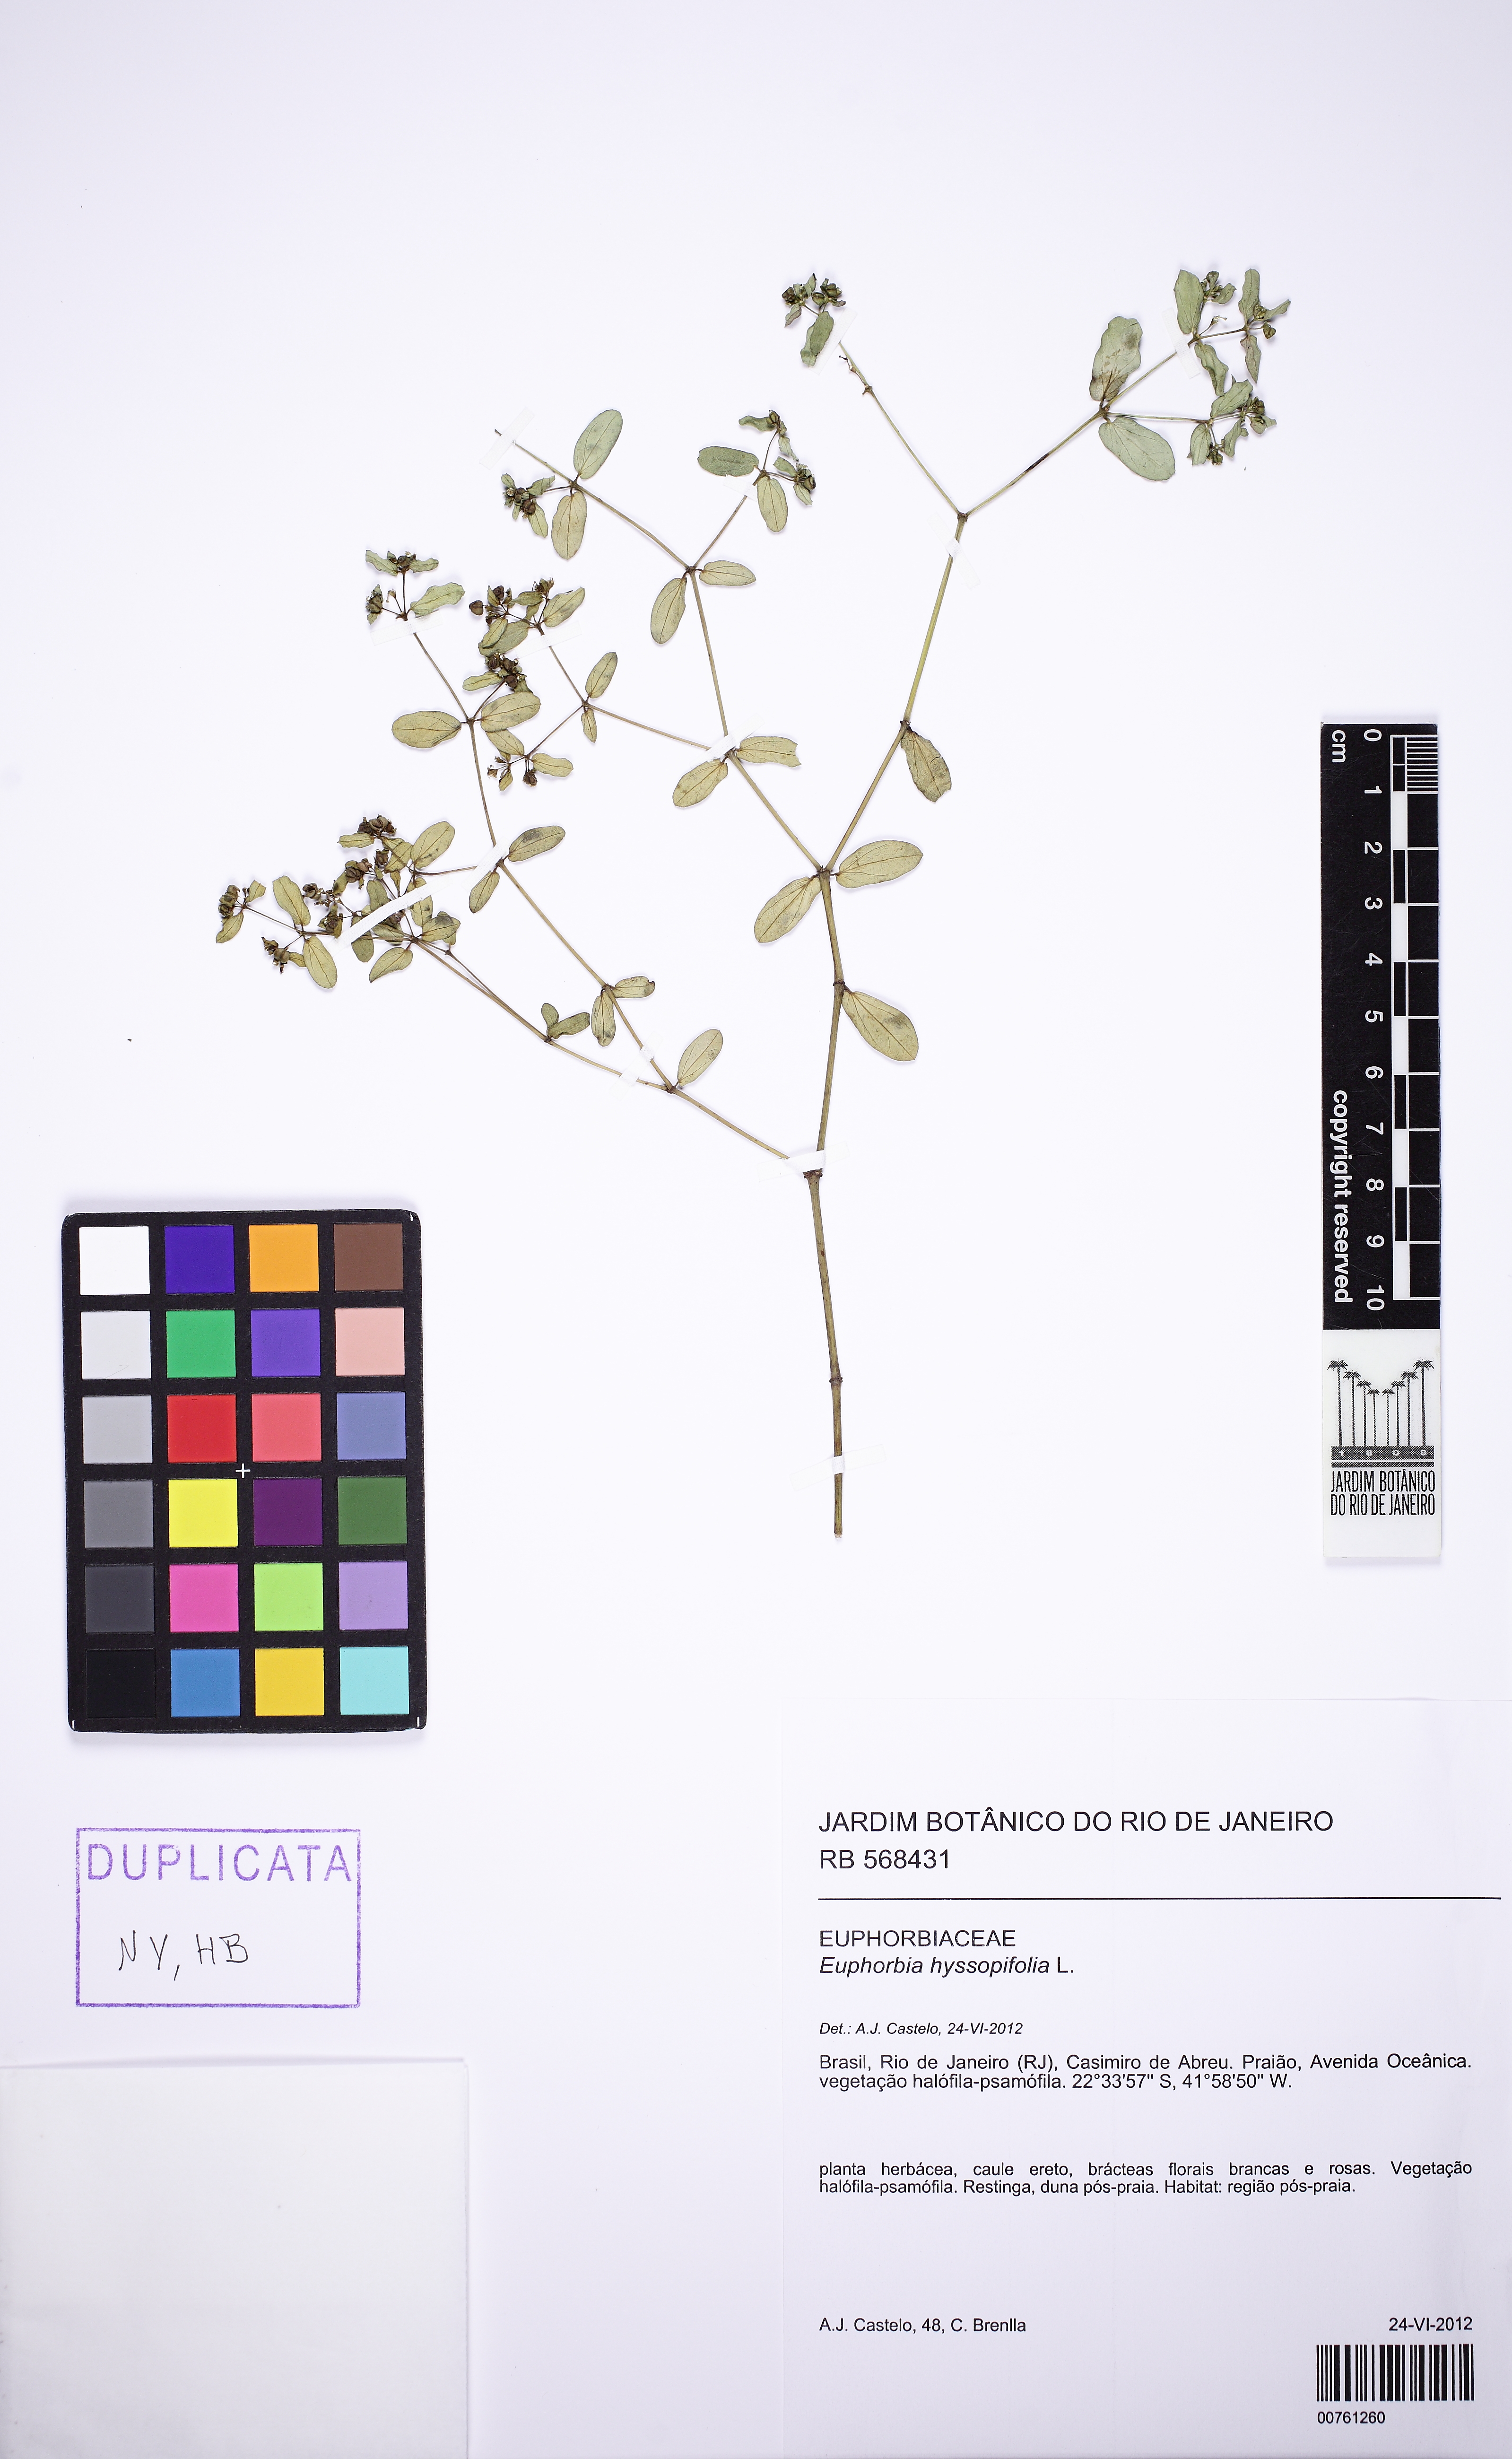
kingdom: Plantae
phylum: Tracheophyta
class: Magnoliopsida
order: Malpighiales
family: Euphorbiaceae
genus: Euphorbia
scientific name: Euphorbia hyssopifolia
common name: Hyssopleaf sandmat
